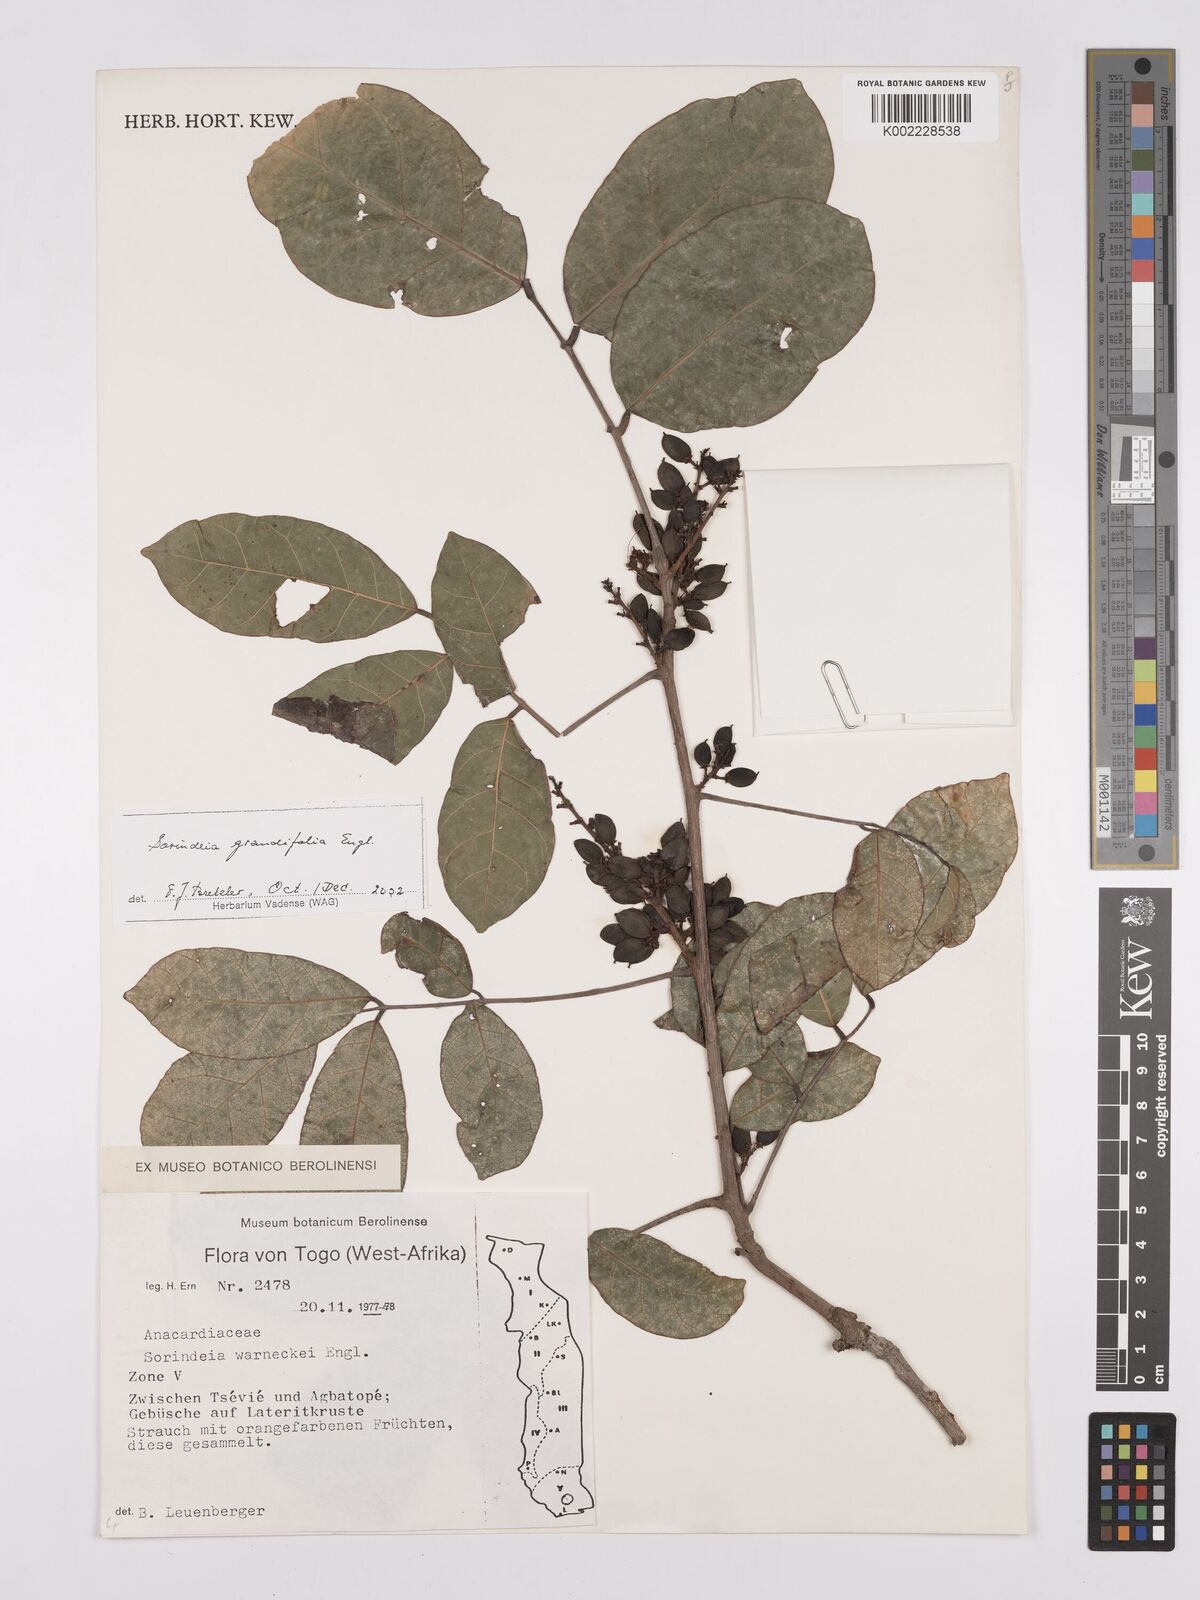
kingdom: Plantae
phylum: Tracheophyta
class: Magnoliopsida
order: Sapindales
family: Anacardiaceae
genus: Sorindeia
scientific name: Sorindeia grandifolia
